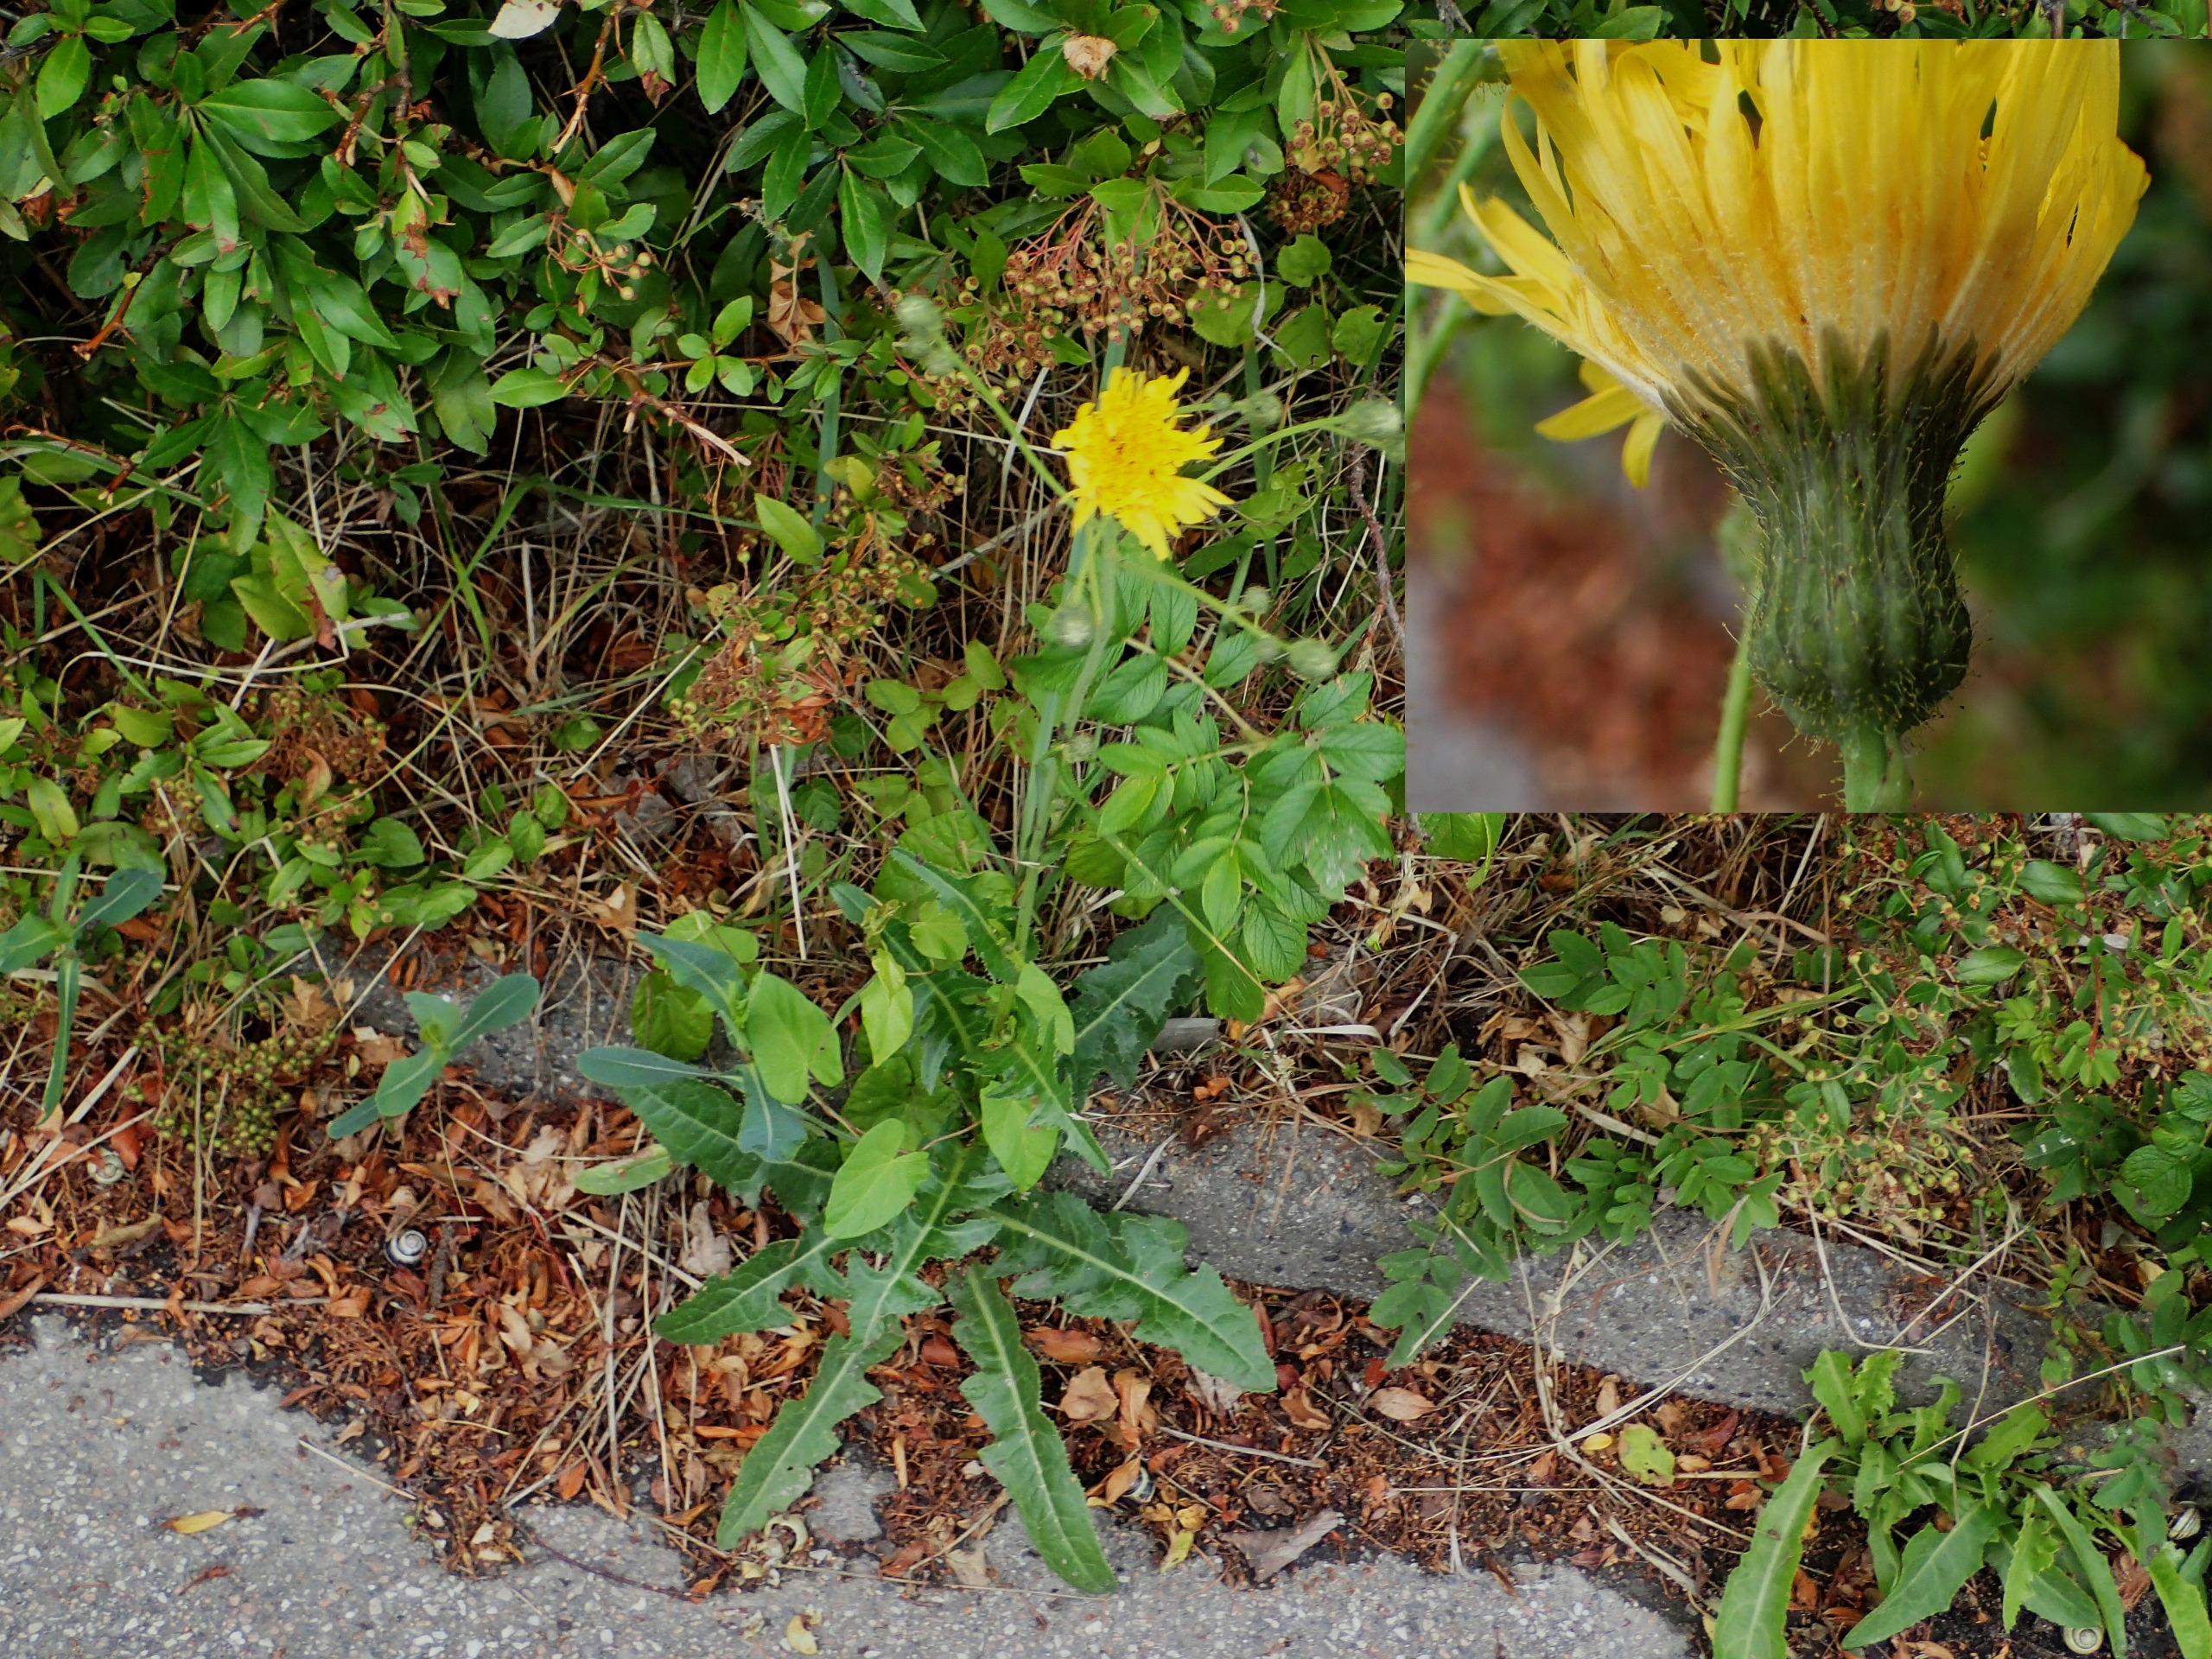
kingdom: Plantae
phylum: Tracheophyta
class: Magnoliopsida
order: Asterales
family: Asteraceae
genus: Sonchus
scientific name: Sonchus arvensis
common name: Ager-svinemælk
